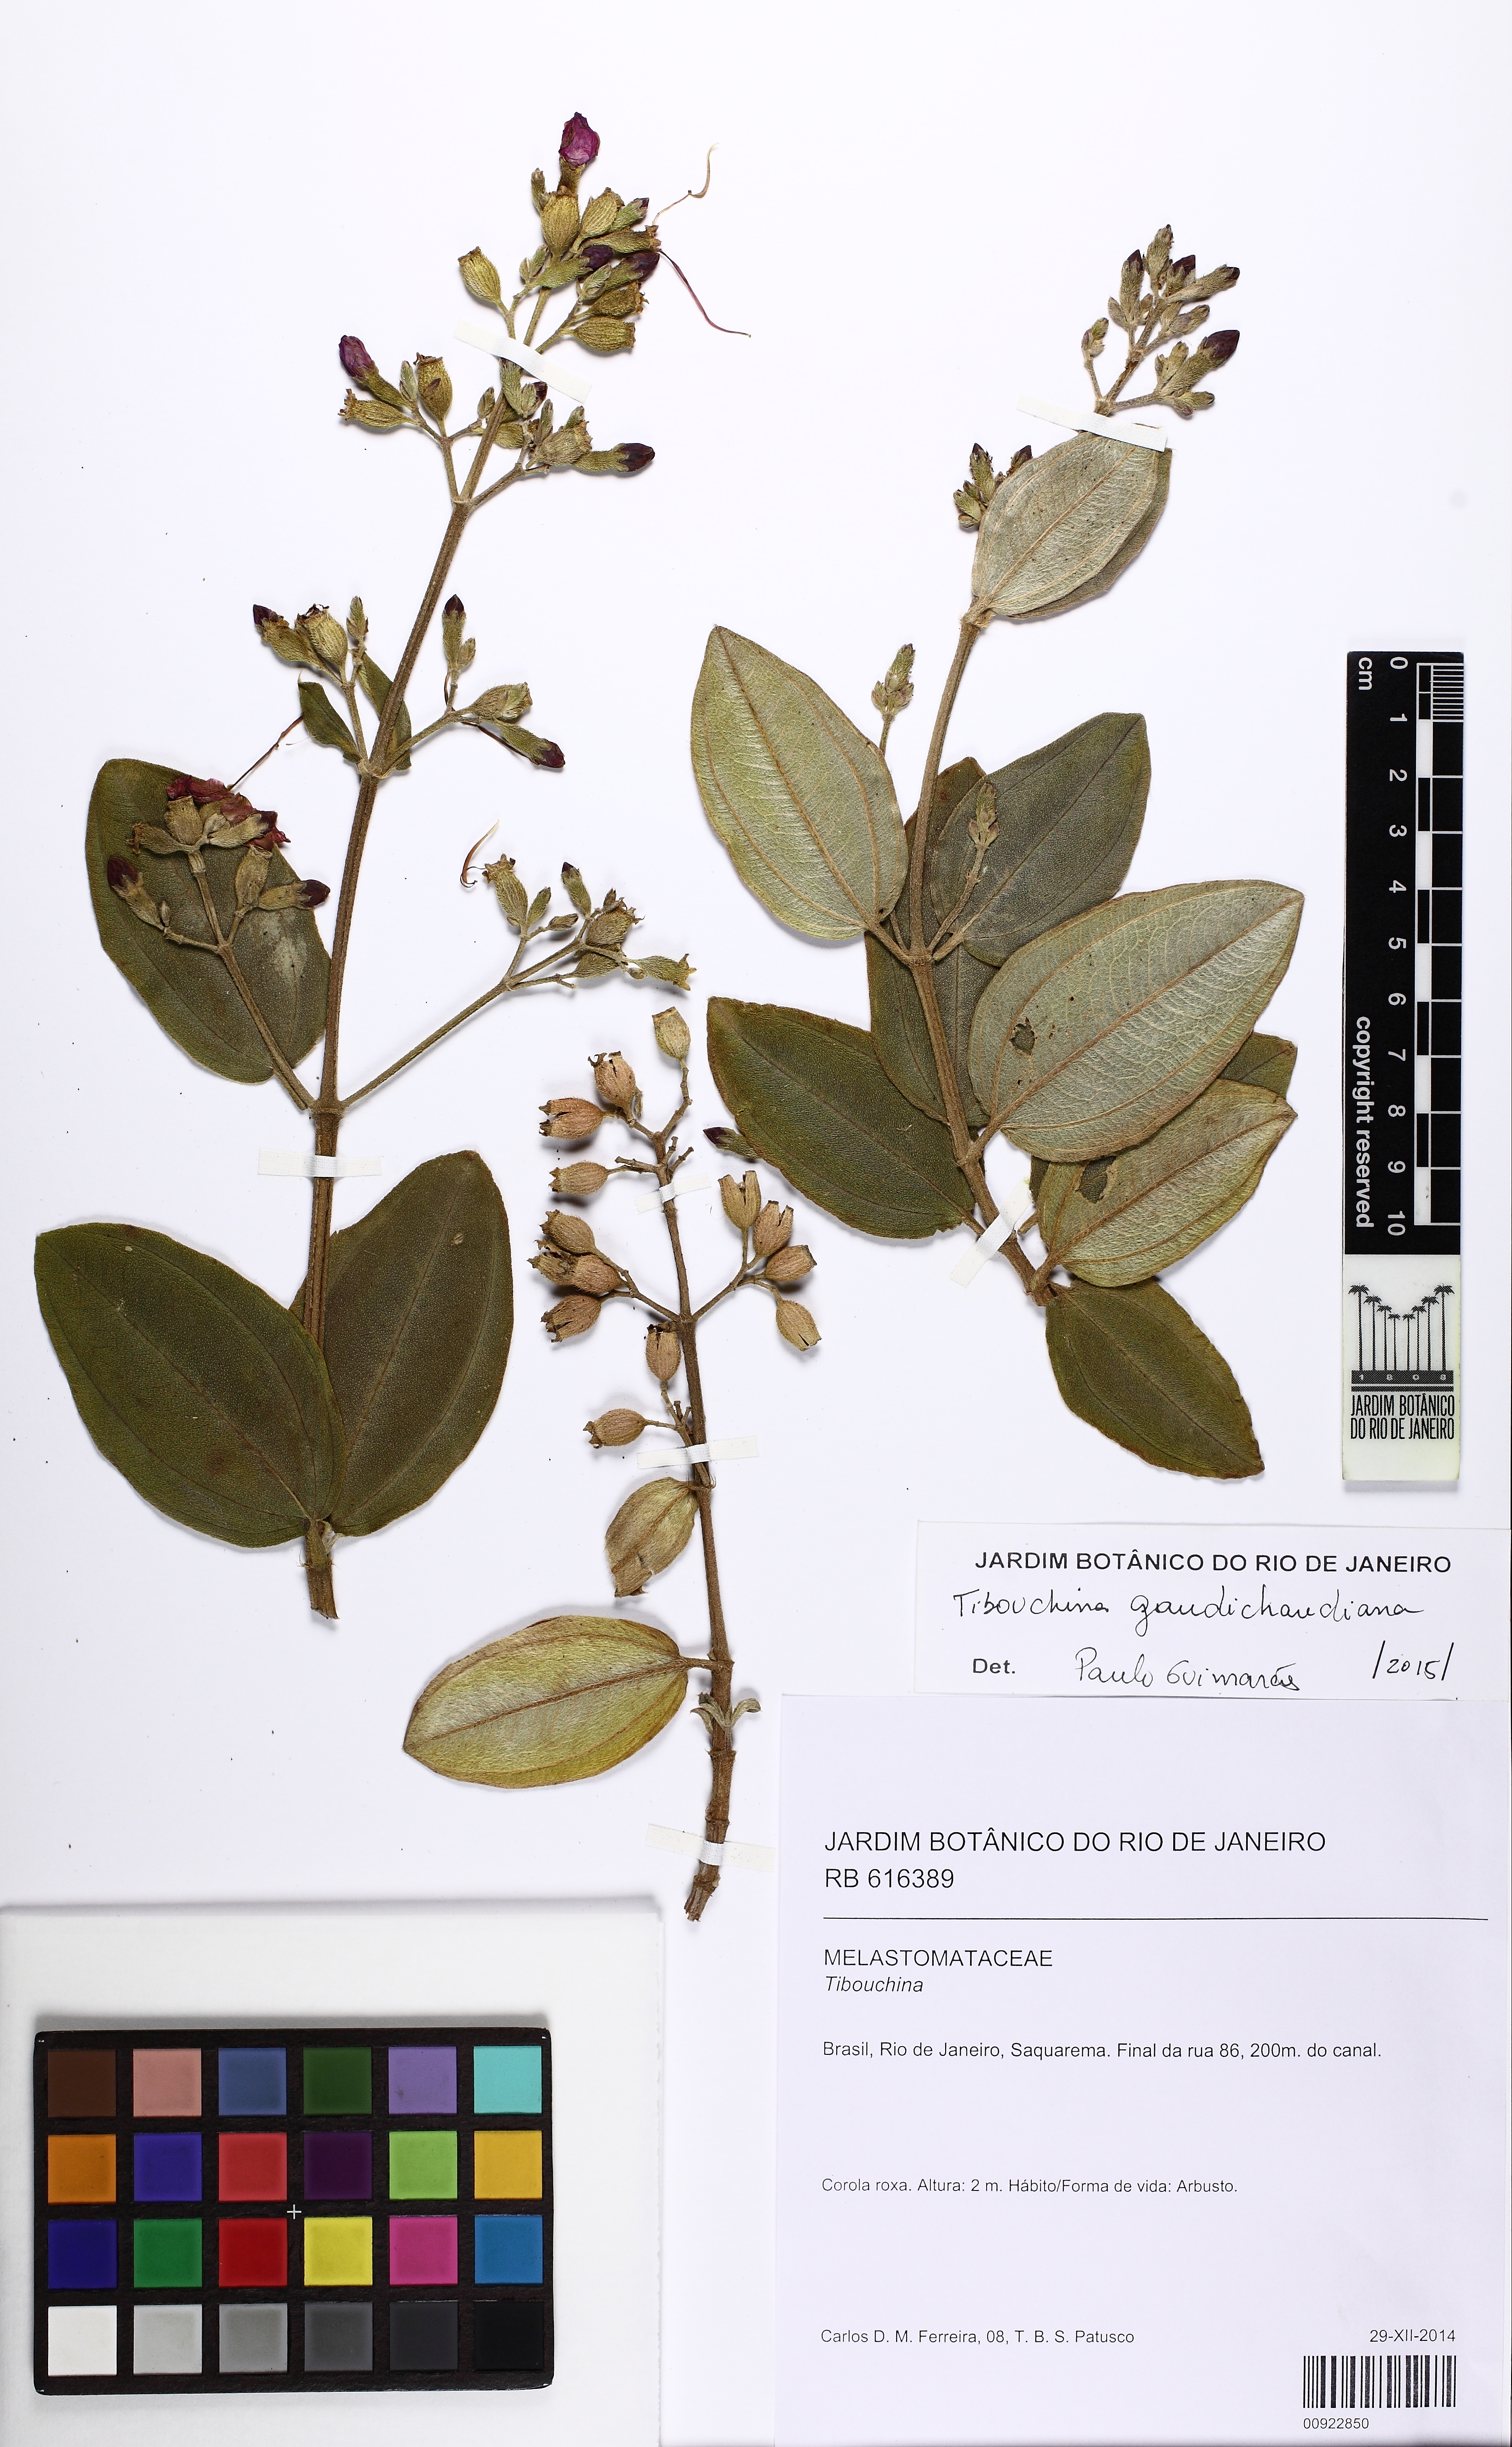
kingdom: Plantae
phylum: Tracheophyta
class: Magnoliopsida
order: Myrtales
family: Melastomataceae
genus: Pleroma
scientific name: Pleroma gaudichaudianum
